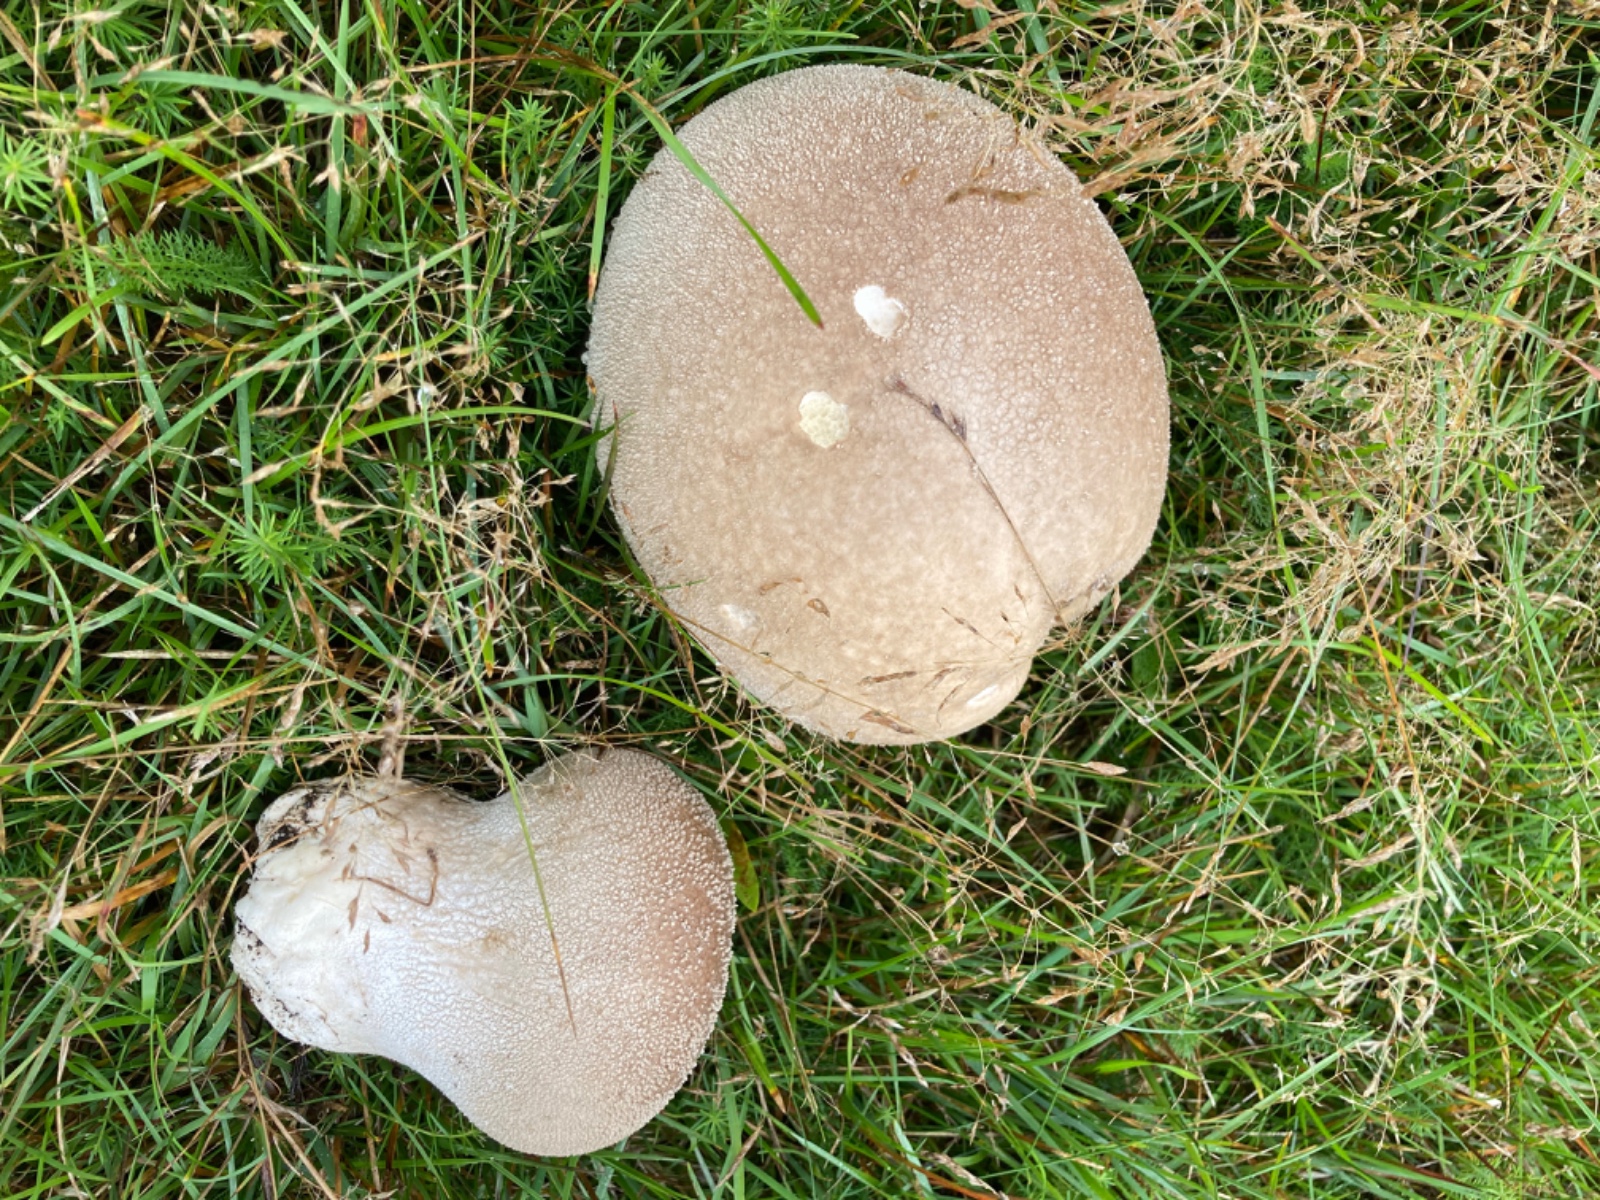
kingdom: Fungi
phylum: Basidiomycota
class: Agaricomycetes
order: Agaricales
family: Lycoperdaceae
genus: Bovistella
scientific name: Bovistella utriformis
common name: skællet støvbold
